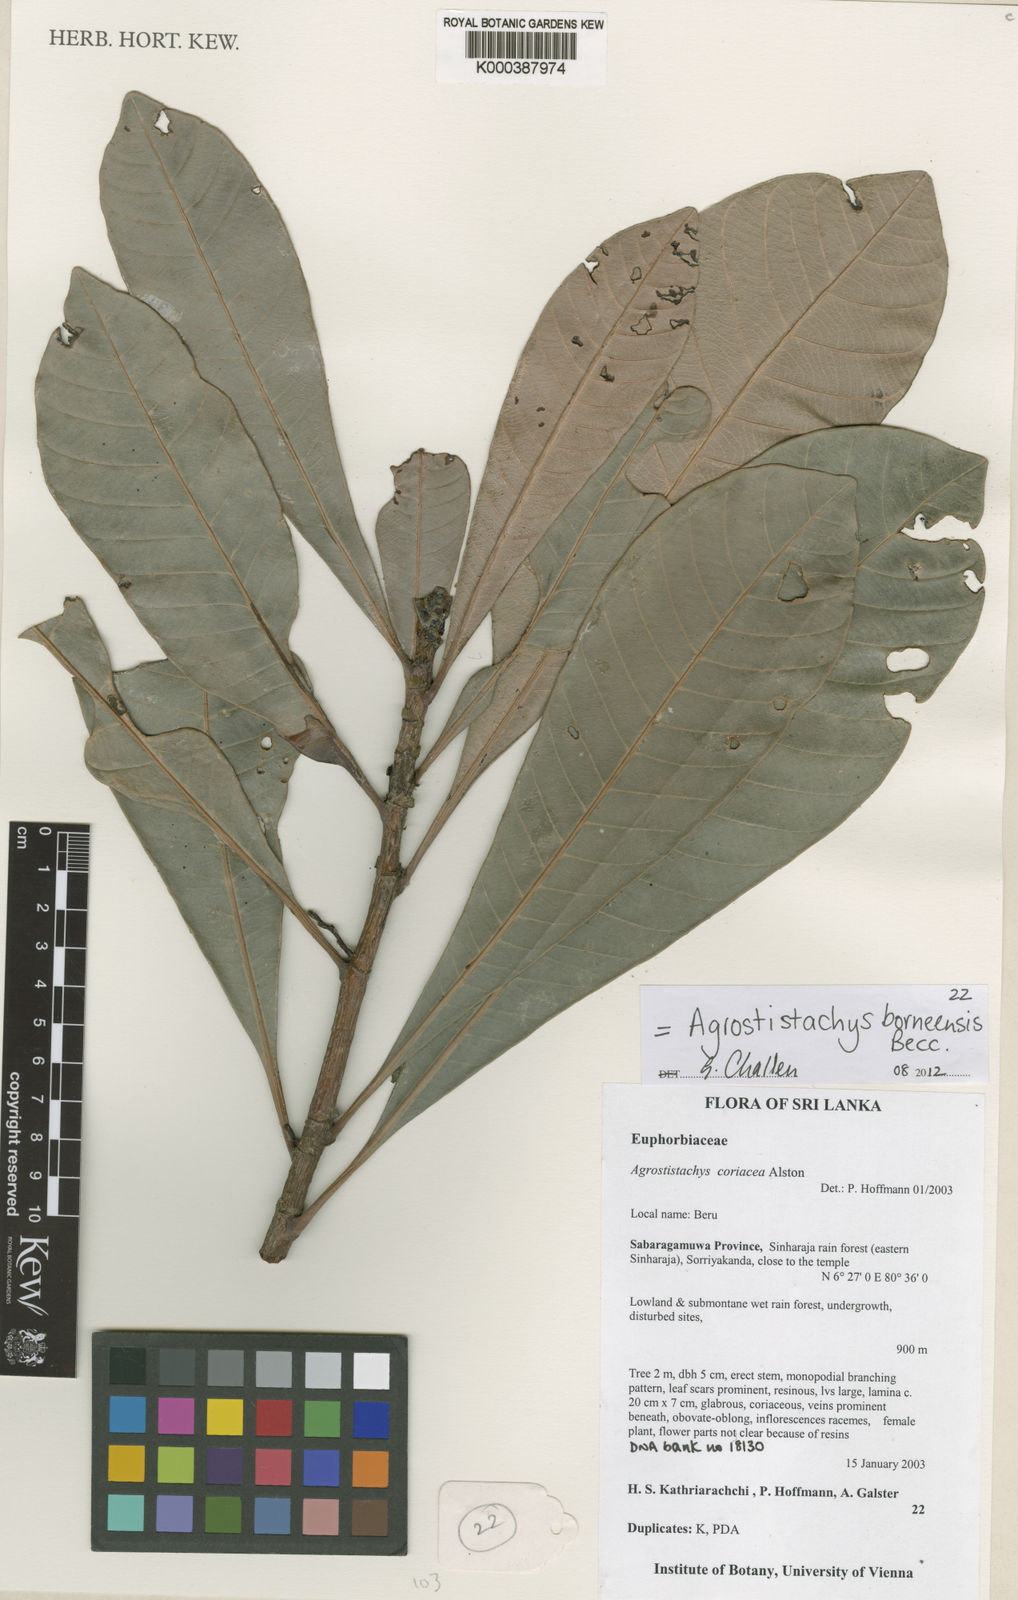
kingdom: Plantae
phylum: Tracheophyta
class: Magnoliopsida
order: Malpighiales
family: Euphorbiaceae
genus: Agrostistachys
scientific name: Agrostistachys borneensis
